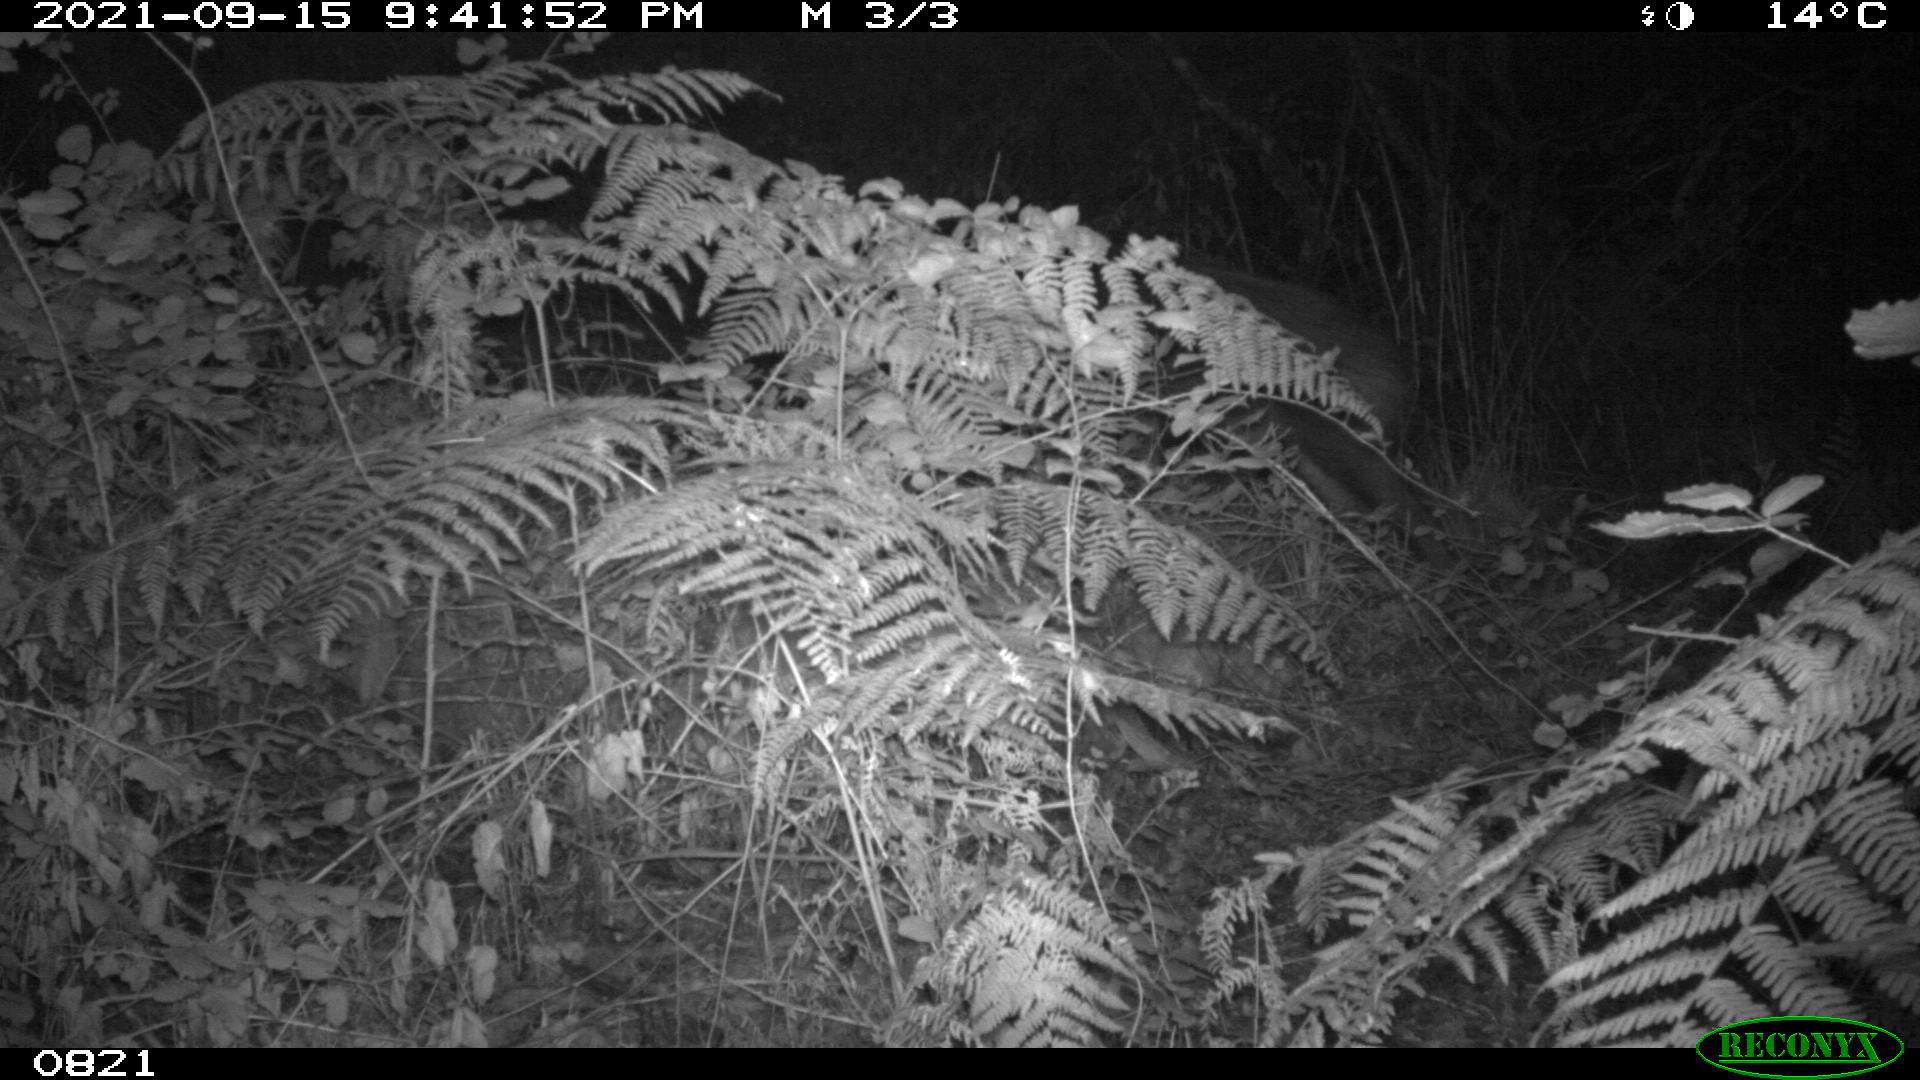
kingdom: Animalia
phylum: Chordata
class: Mammalia
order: Artiodactyla
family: Suidae
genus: Sus
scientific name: Sus scrofa
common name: Wild boar
